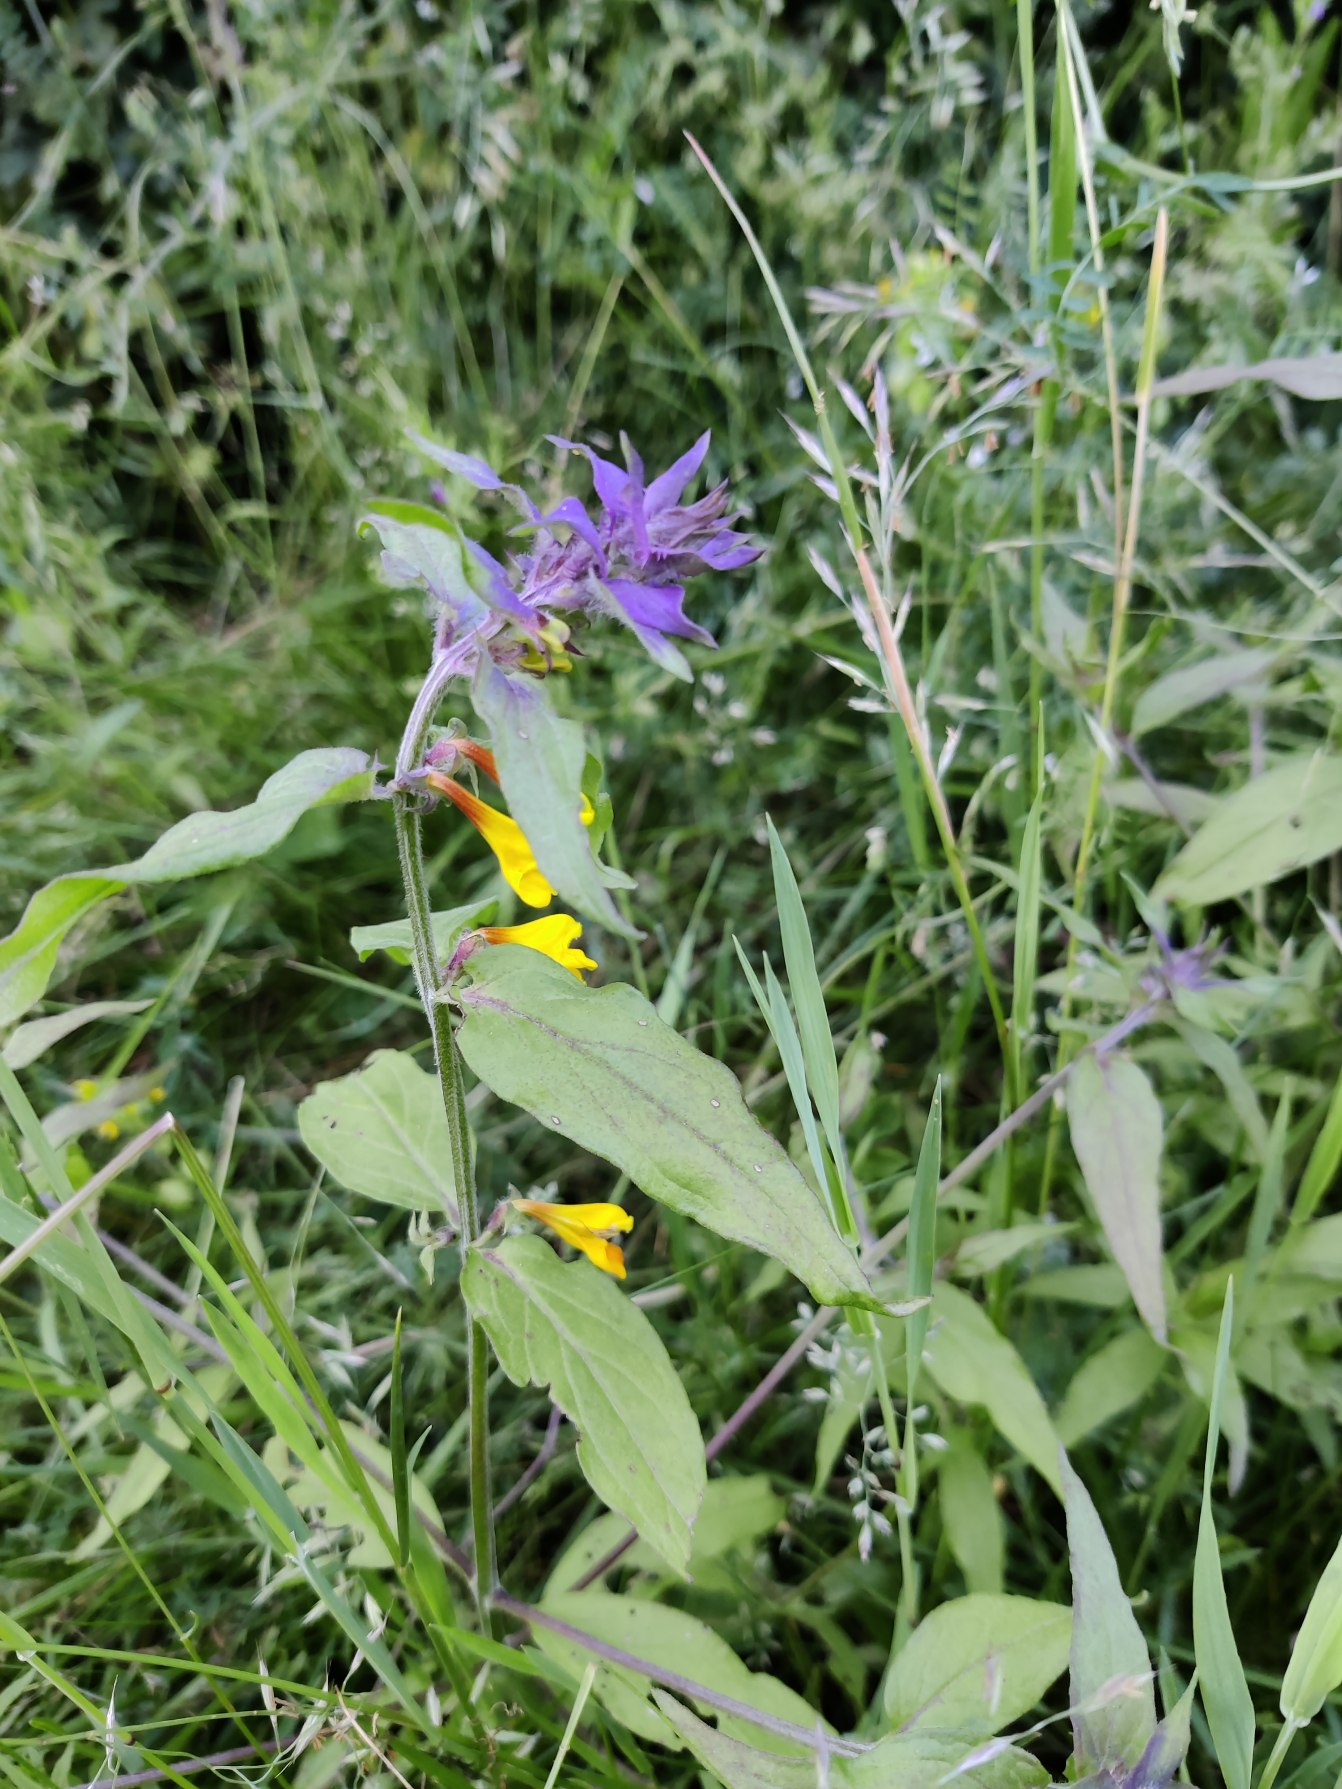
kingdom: Plantae
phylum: Tracheophyta
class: Magnoliopsida
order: Lamiales
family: Orobanchaceae
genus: Melampyrum
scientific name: Melampyrum nemorosum
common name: Blåtoppet kohvede
